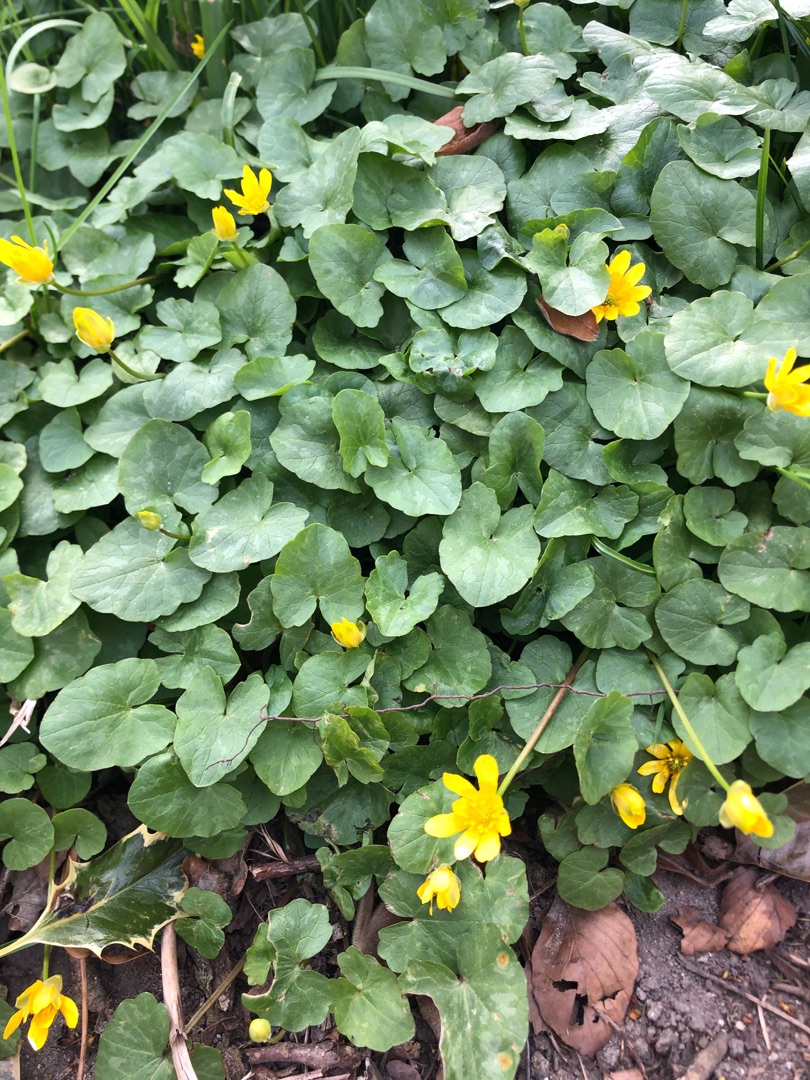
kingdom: Plantae
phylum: Tracheophyta
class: Magnoliopsida
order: Ranunculales
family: Ranunculaceae
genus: Ficaria
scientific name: Ficaria verna
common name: Vorterod
